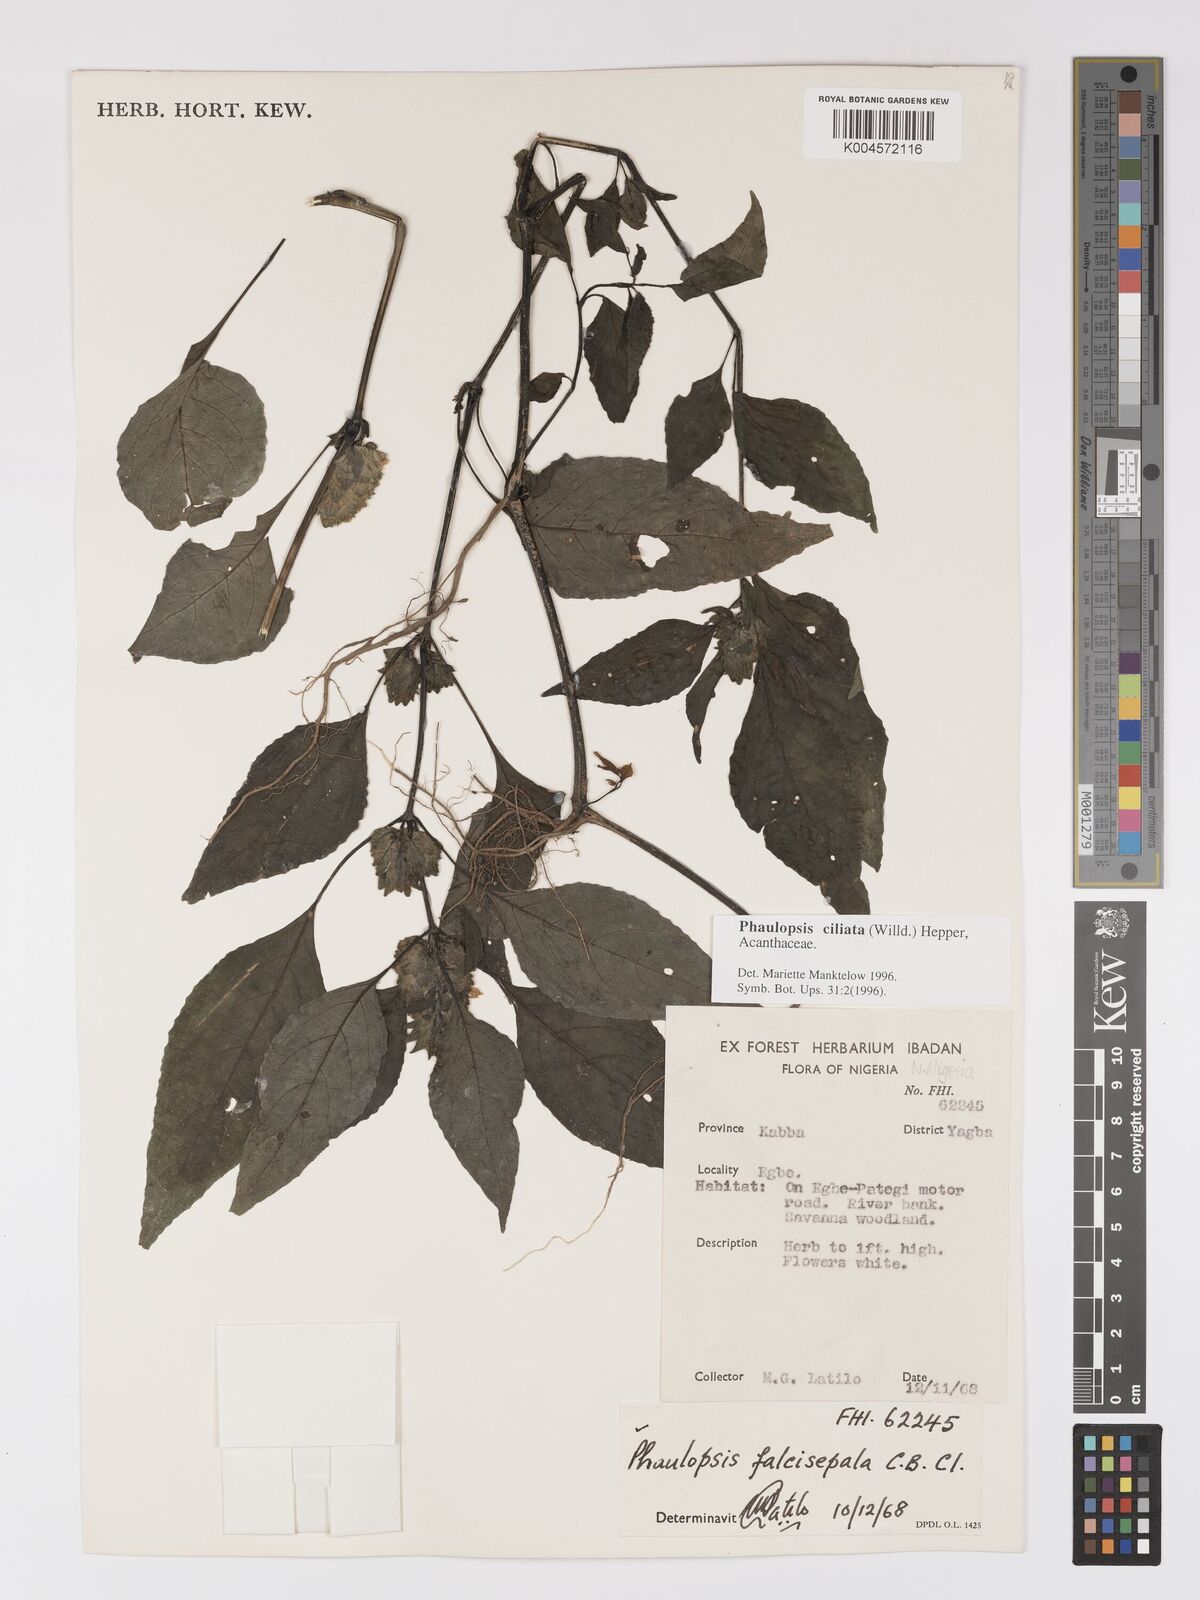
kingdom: Plantae
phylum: Tracheophyta
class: Magnoliopsida
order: Lamiales
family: Acanthaceae
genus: Phaulopsis
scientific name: Phaulopsis ciliata
